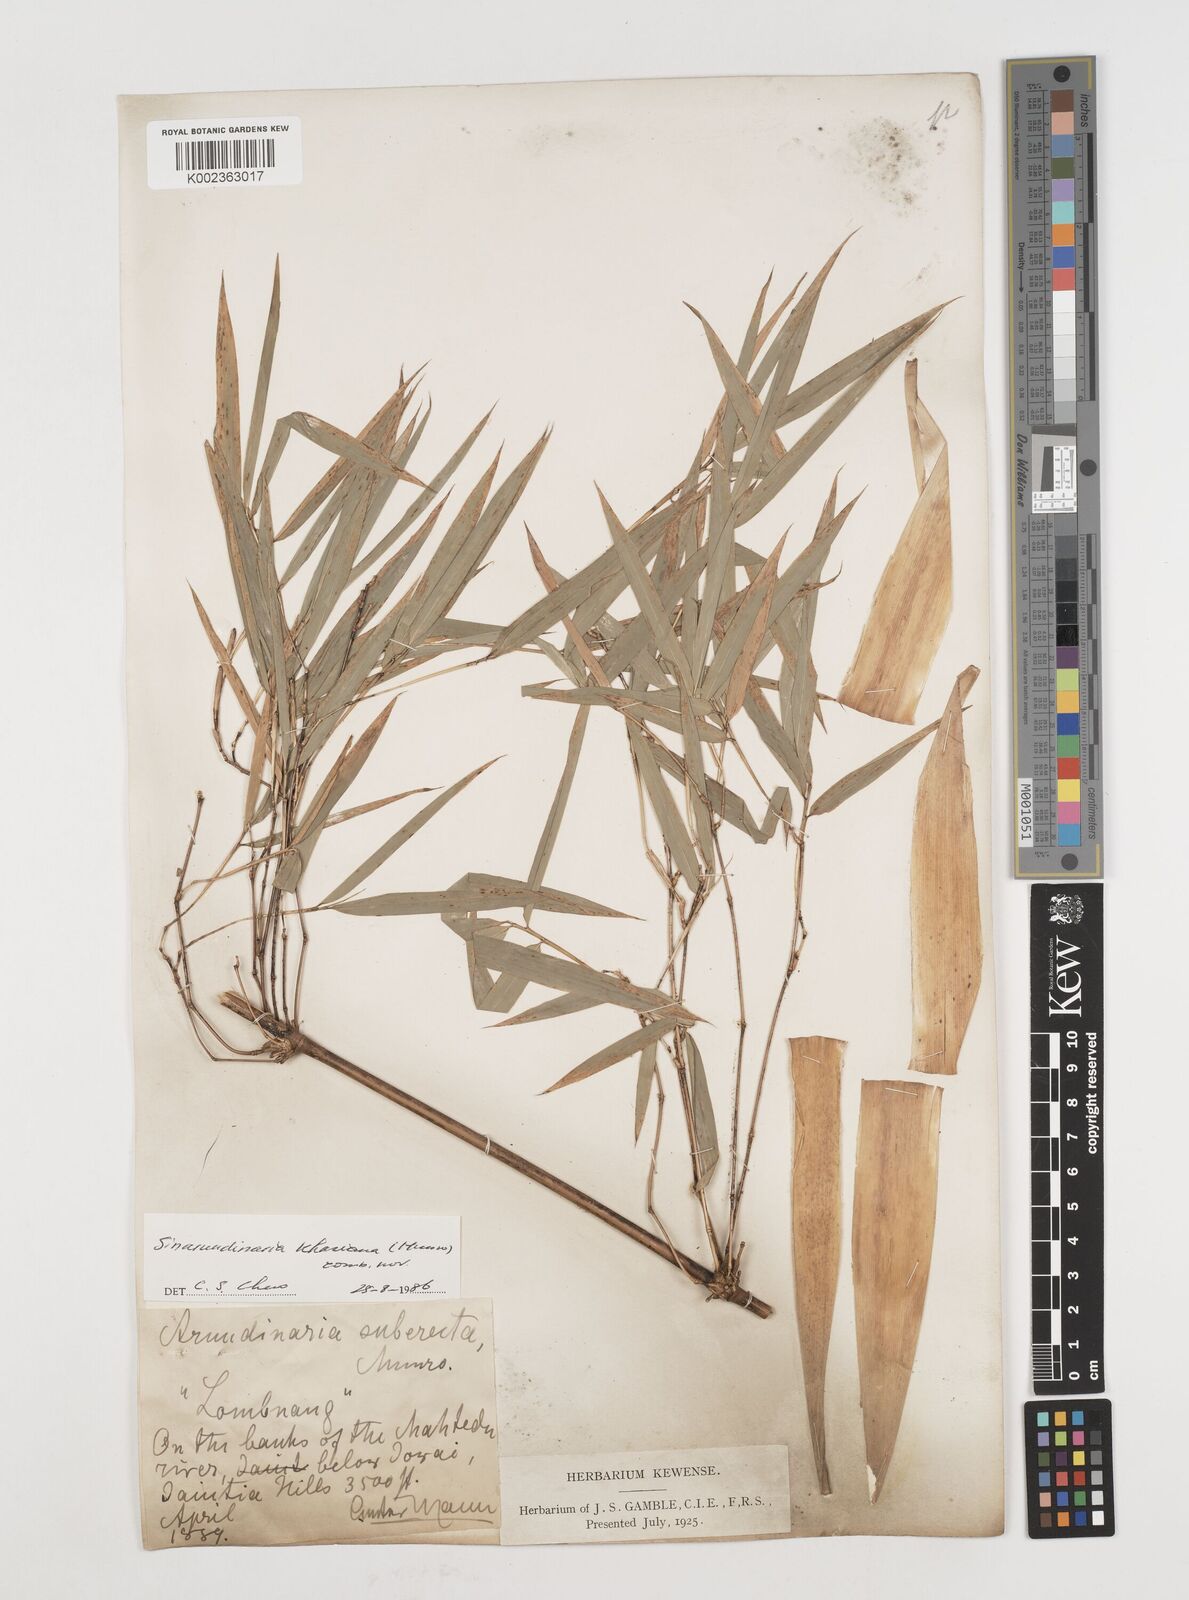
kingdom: Plantae
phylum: Tracheophyta
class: Liliopsida
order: Poales
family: Poaceae
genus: Drepanostachyum
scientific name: Drepanostachyum khasianum
